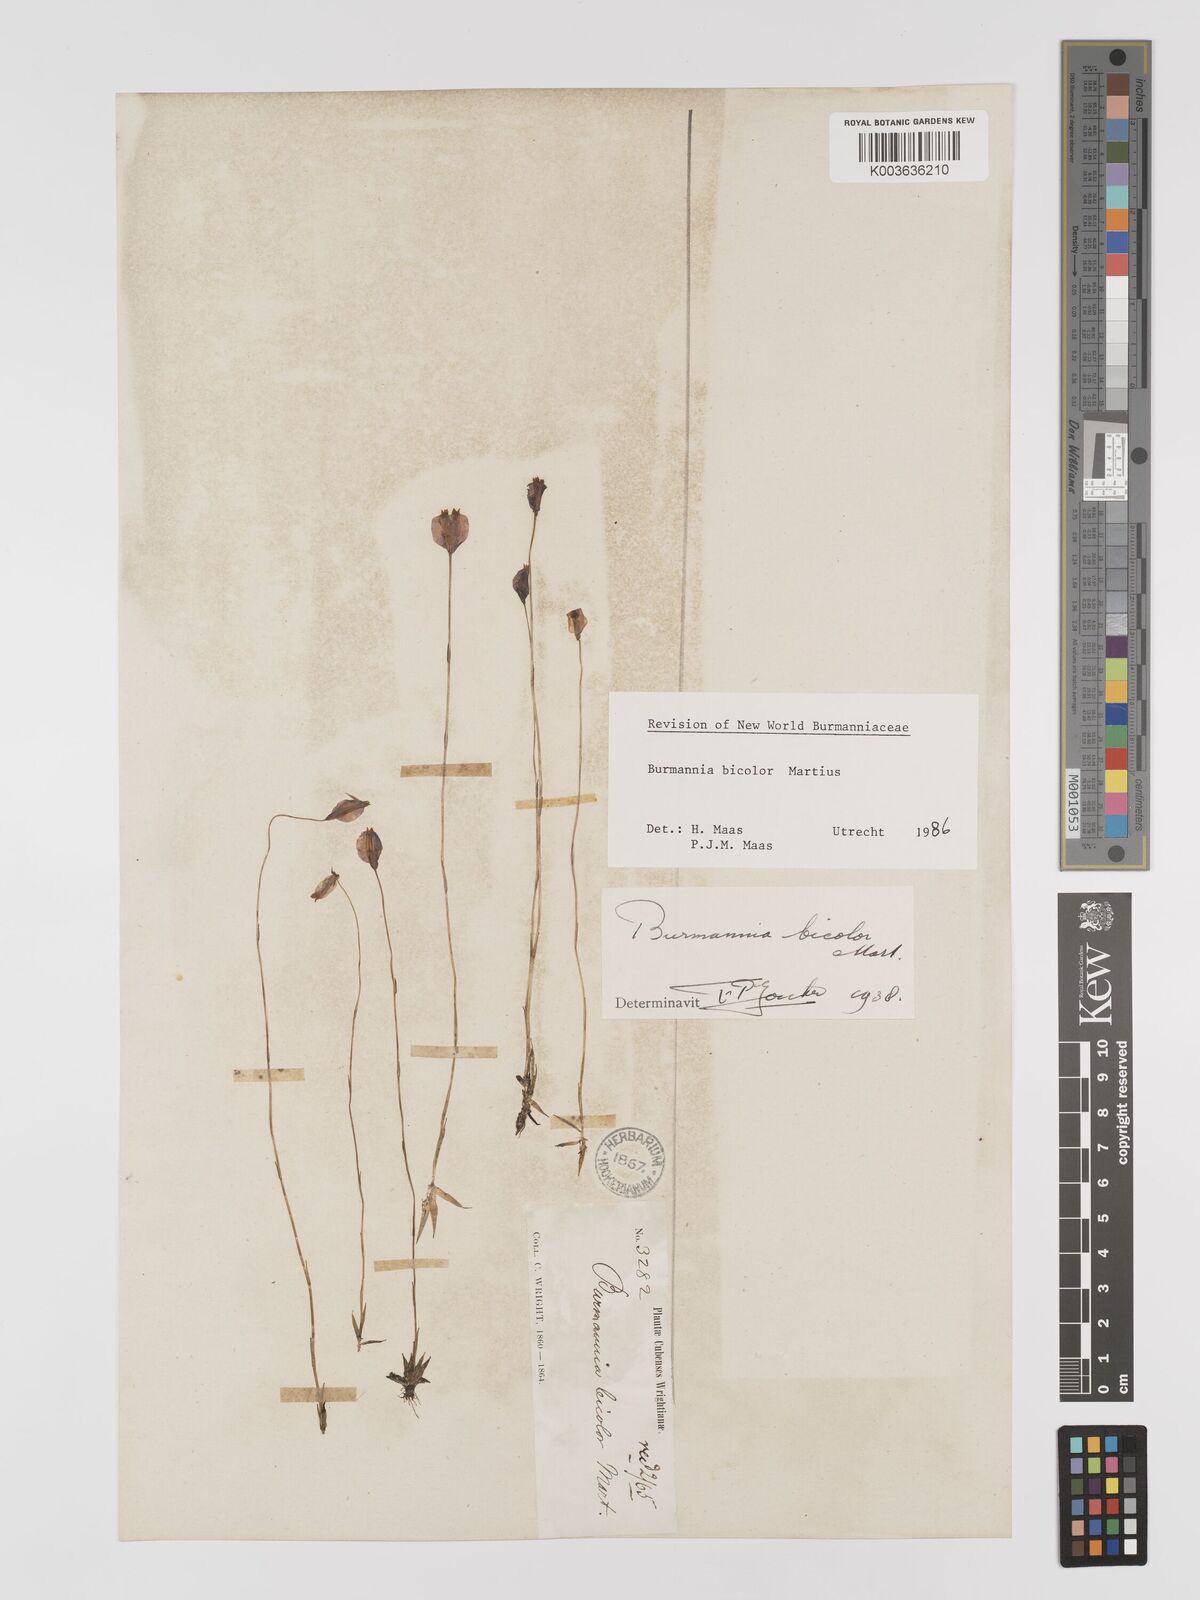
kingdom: Plantae
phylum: Tracheophyta
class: Liliopsida
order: Dioscoreales
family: Burmanniaceae
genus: Burmannia
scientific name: Burmannia bicolor
